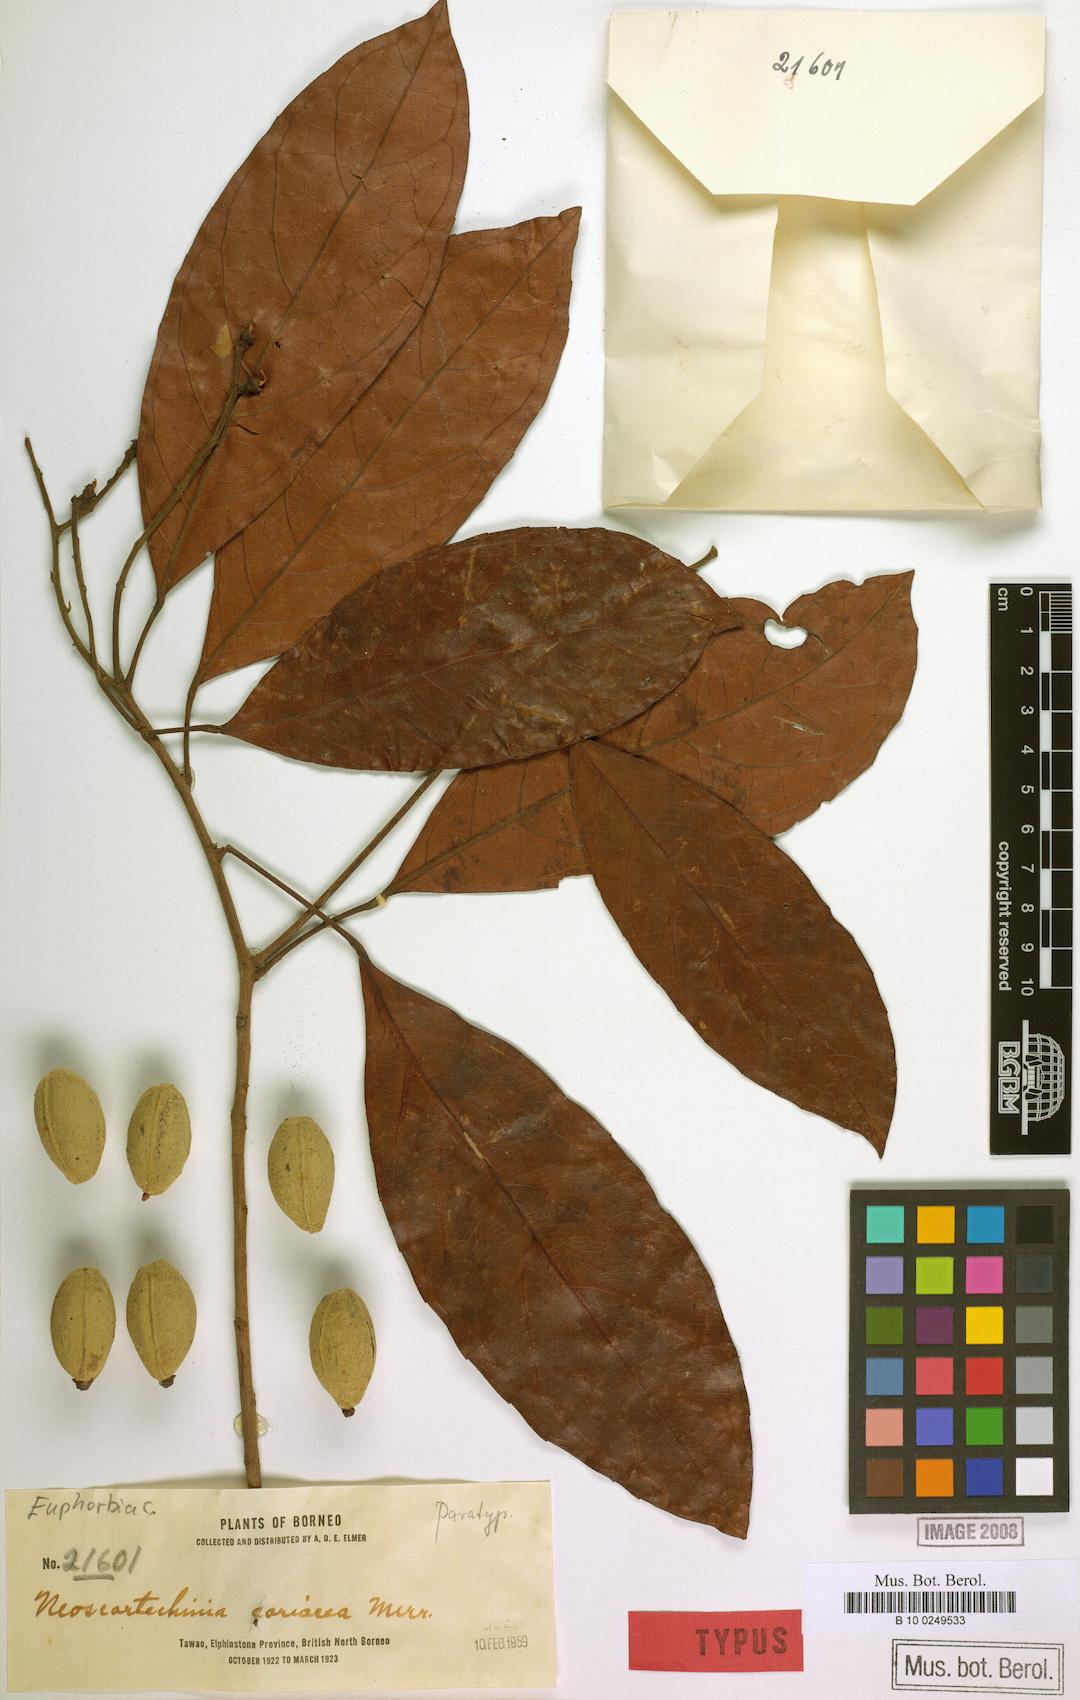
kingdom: Plantae
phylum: Tracheophyta
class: Magnoliopsida
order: Malpighiales
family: Euphorbiaceae
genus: Neoscortechinia
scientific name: Neoscortechinia philippinensis
